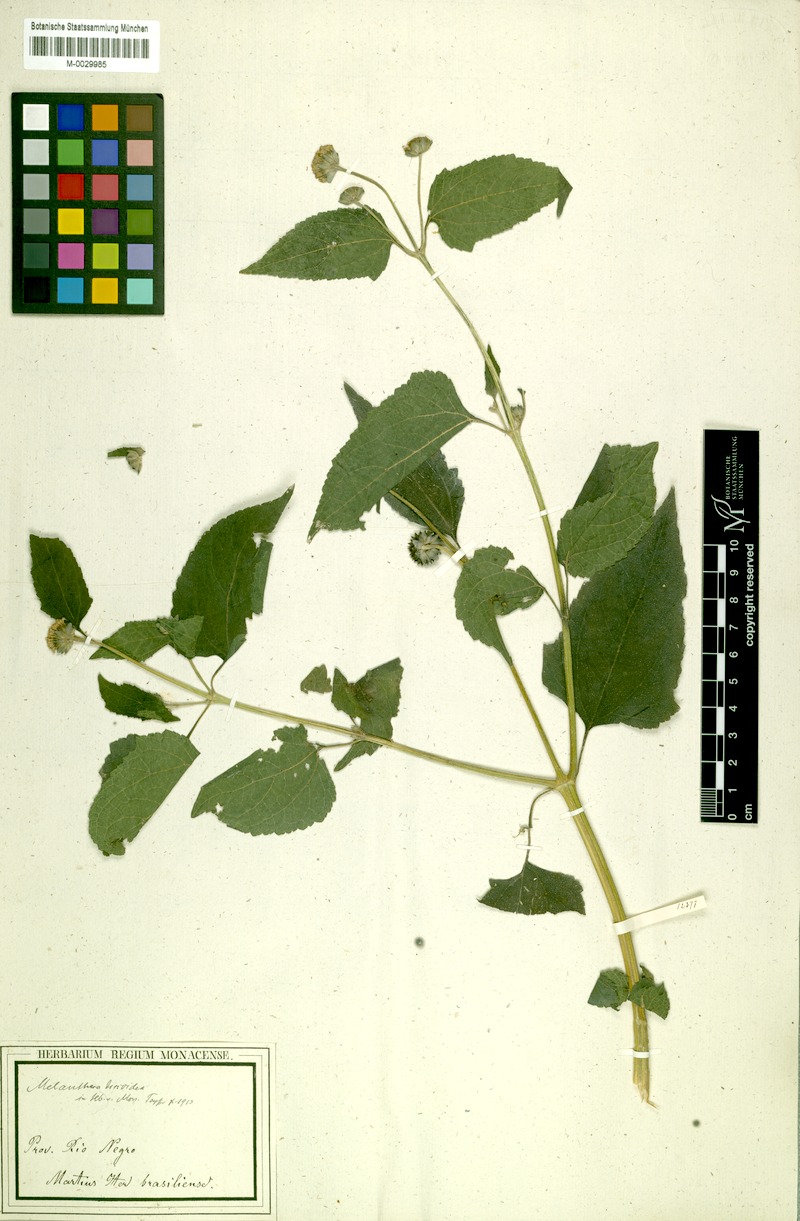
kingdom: Plantae
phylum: Tracheophyta
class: Magnoliopsida
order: Asterales
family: Asteraceae
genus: Melanthera
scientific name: Melanthera nivea
